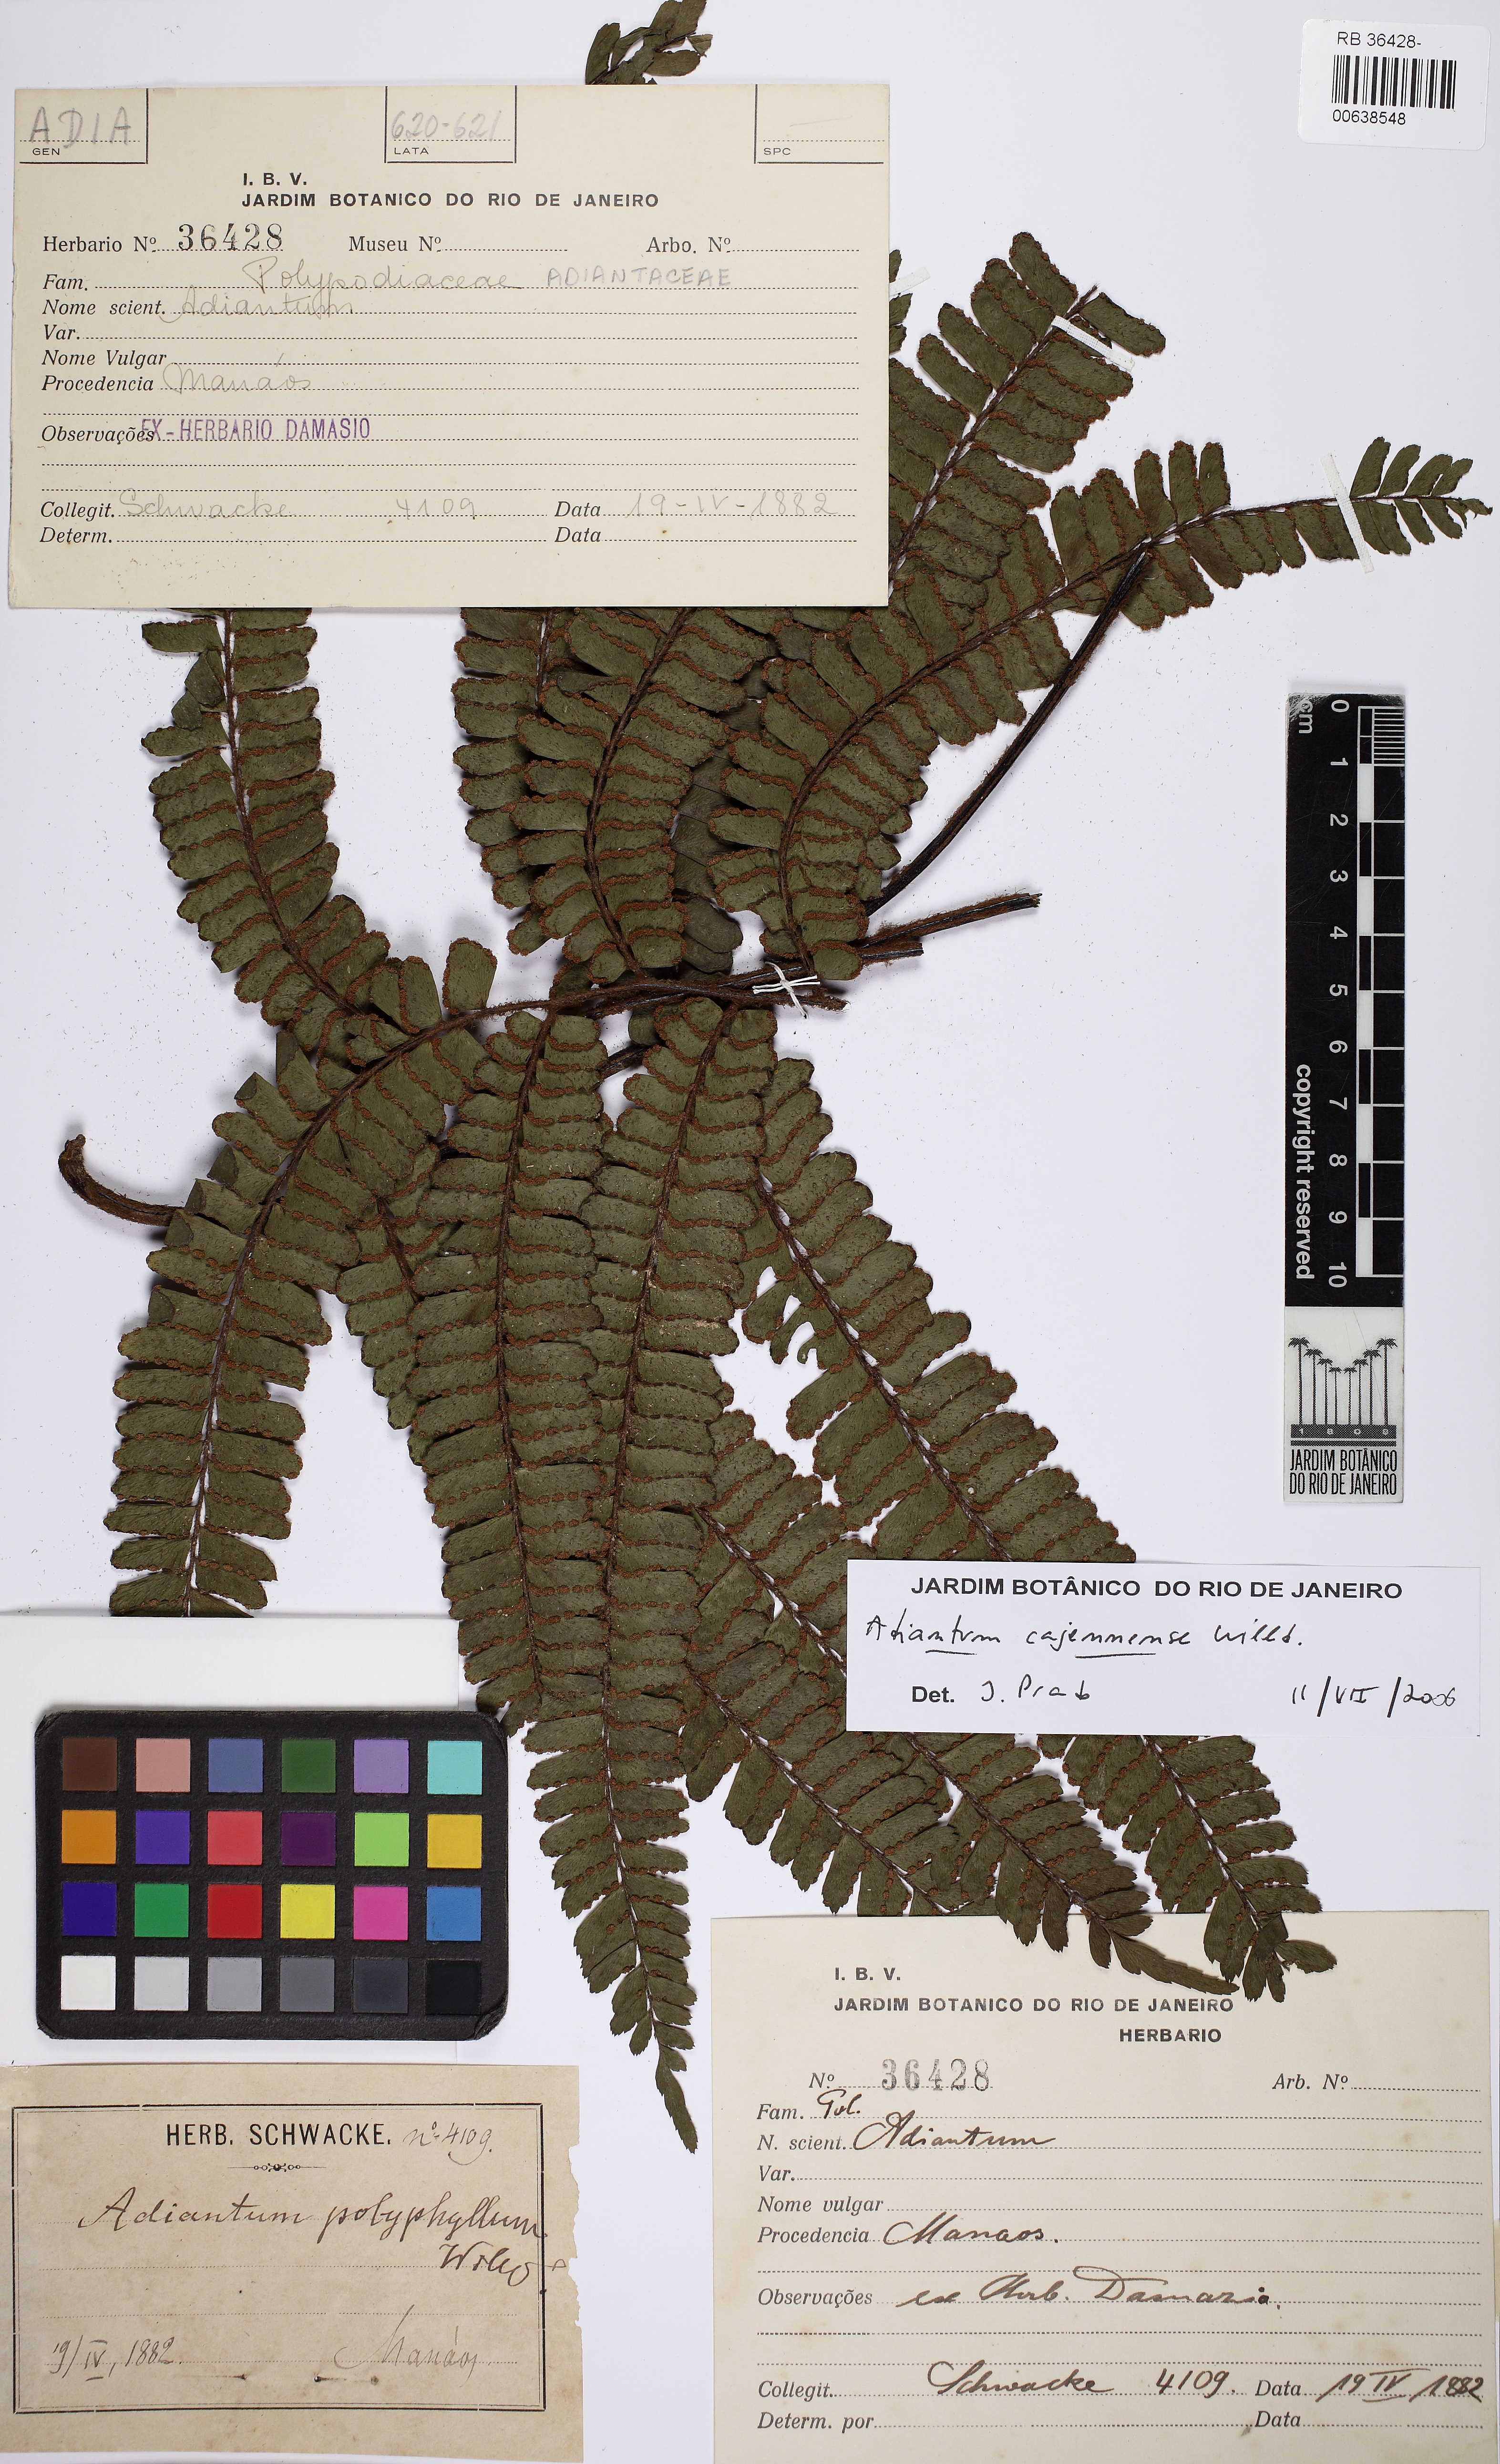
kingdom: Plantae
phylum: Tracheophyta
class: Polypodiopsida
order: Polypodiales
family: Pteridaceae
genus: Adiantum
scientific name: Adiantum cajennense
